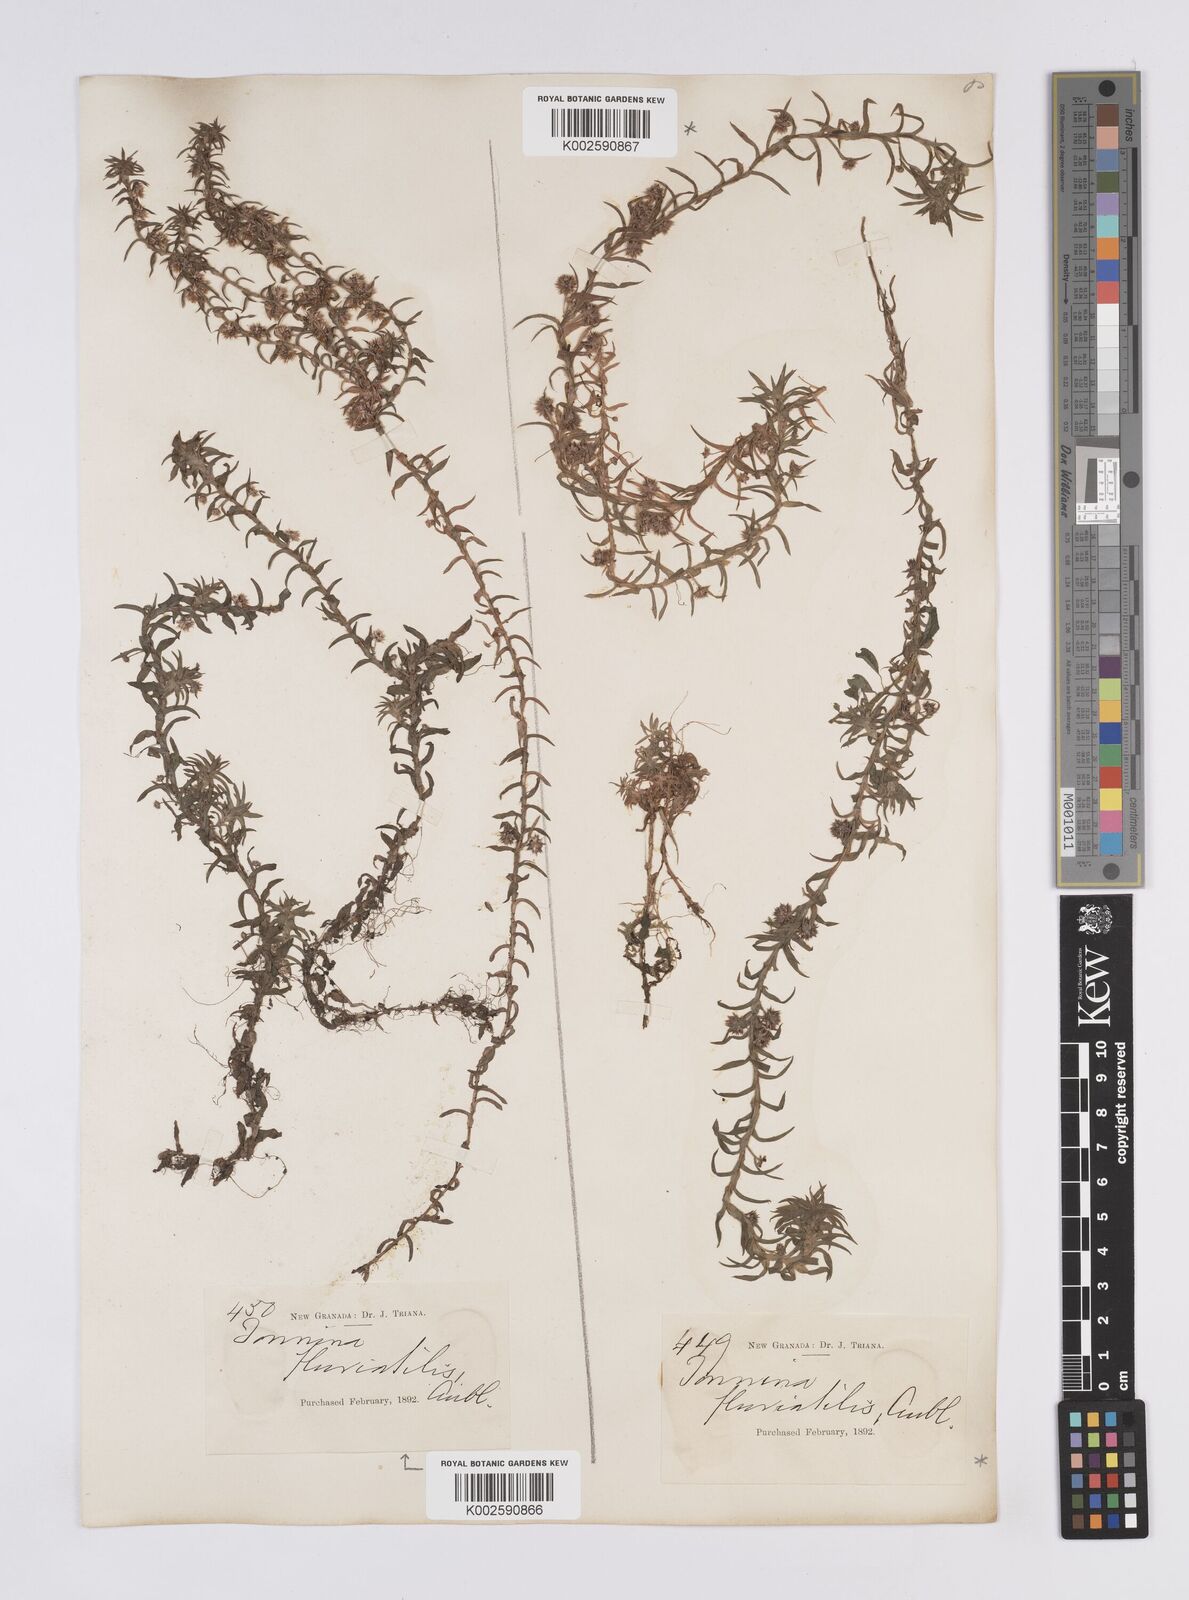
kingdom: Plantae
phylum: Tracheophyta
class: Liliopsida
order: Poales
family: Eriocaulaceae
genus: Paepalanthus
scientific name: Paepalanthus fluviatilis
